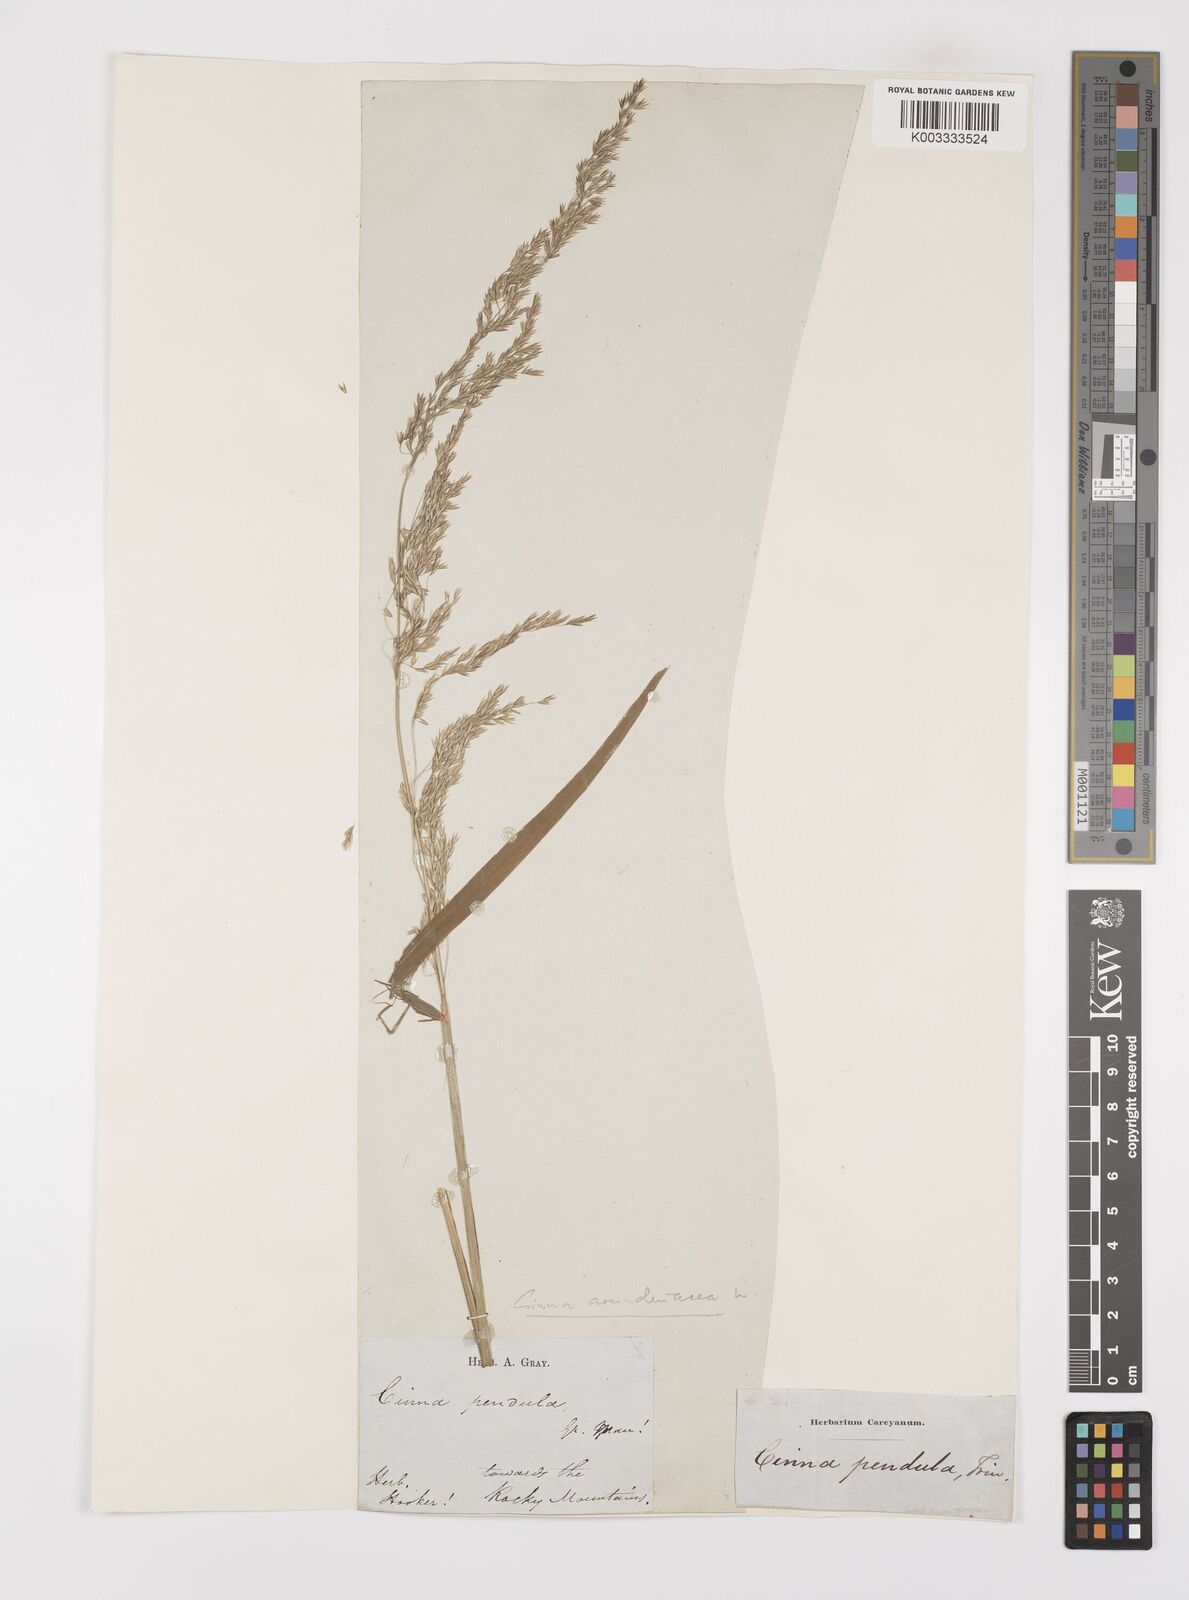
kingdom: Plantae
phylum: Tracheophyta
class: Liliopsida
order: Poales
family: Poaceae
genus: Cinna
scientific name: Cinna
